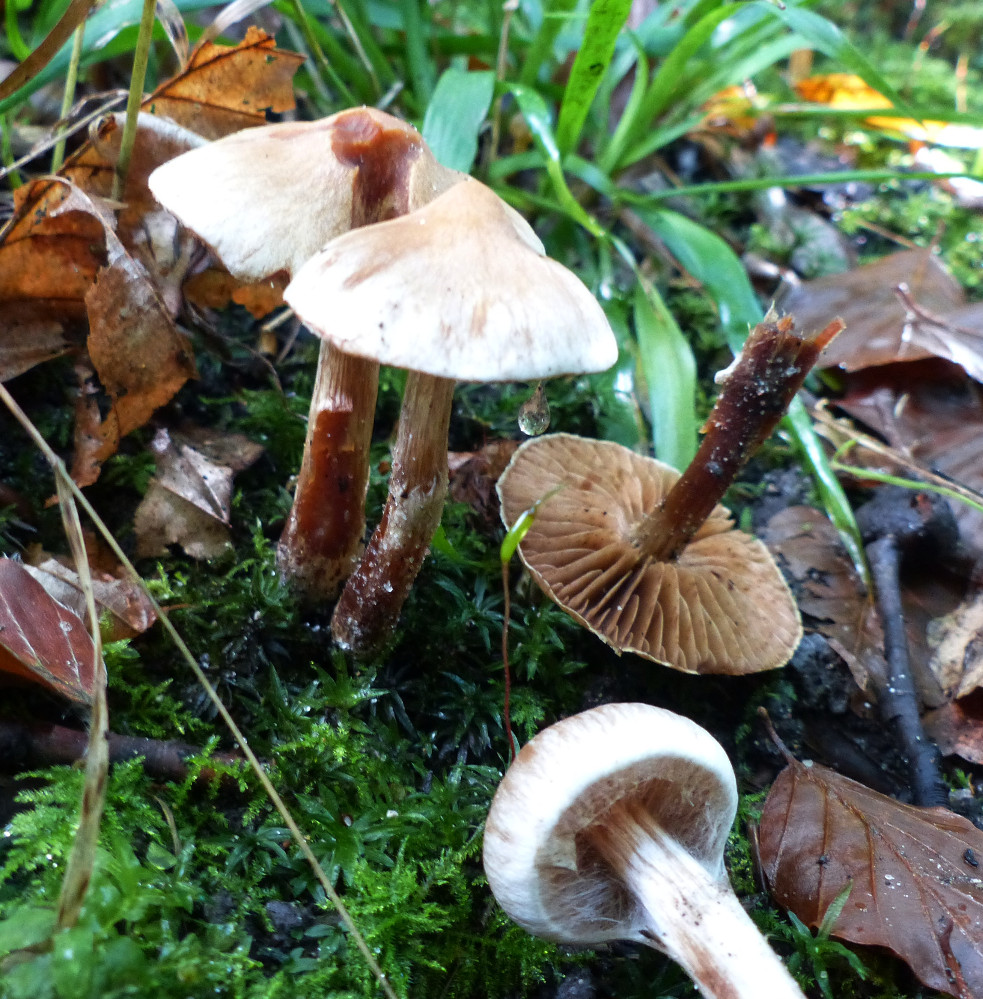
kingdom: Fungi
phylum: Basidiomycota
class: Agaricomycetes
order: Agaricales
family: Cortinariaceae
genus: Cortinarius
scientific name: Cortinarius
